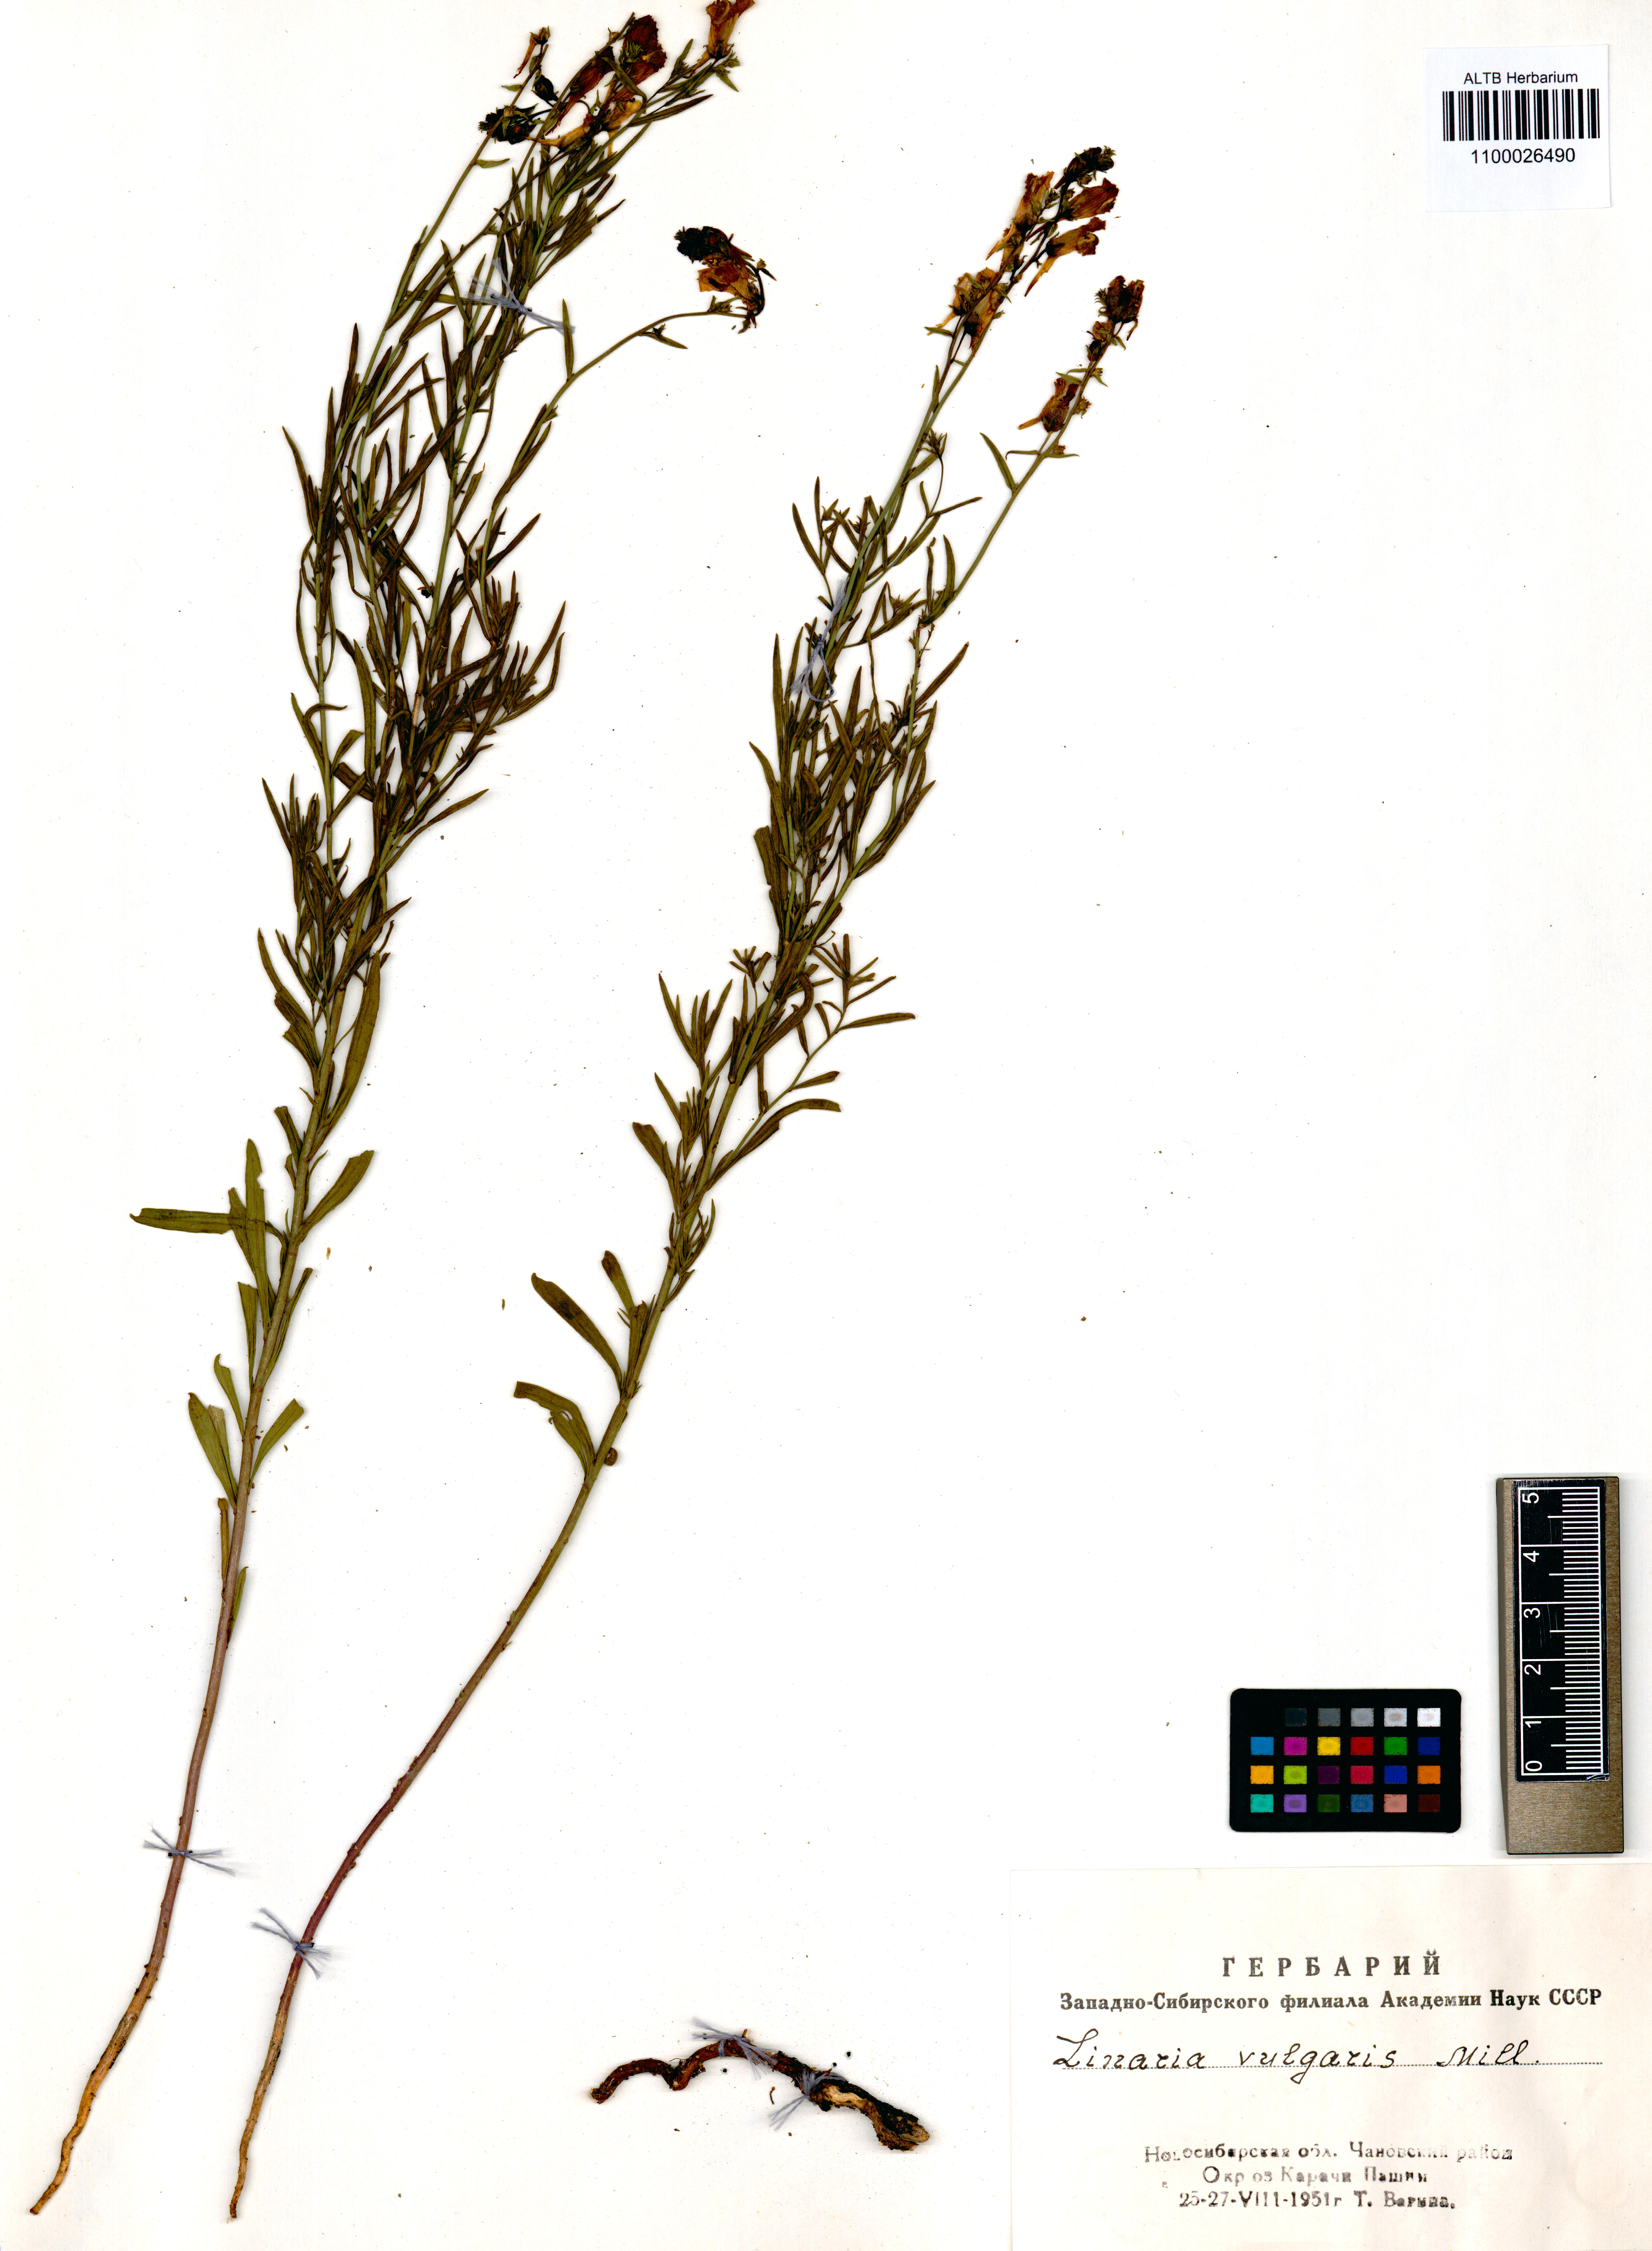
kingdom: Plantae
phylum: Tracheophyta
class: Magnoliopsida
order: Lamiales
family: Plantaginaceae
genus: Linaria
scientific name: Linaria vulgaris
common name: Butter and eggs
